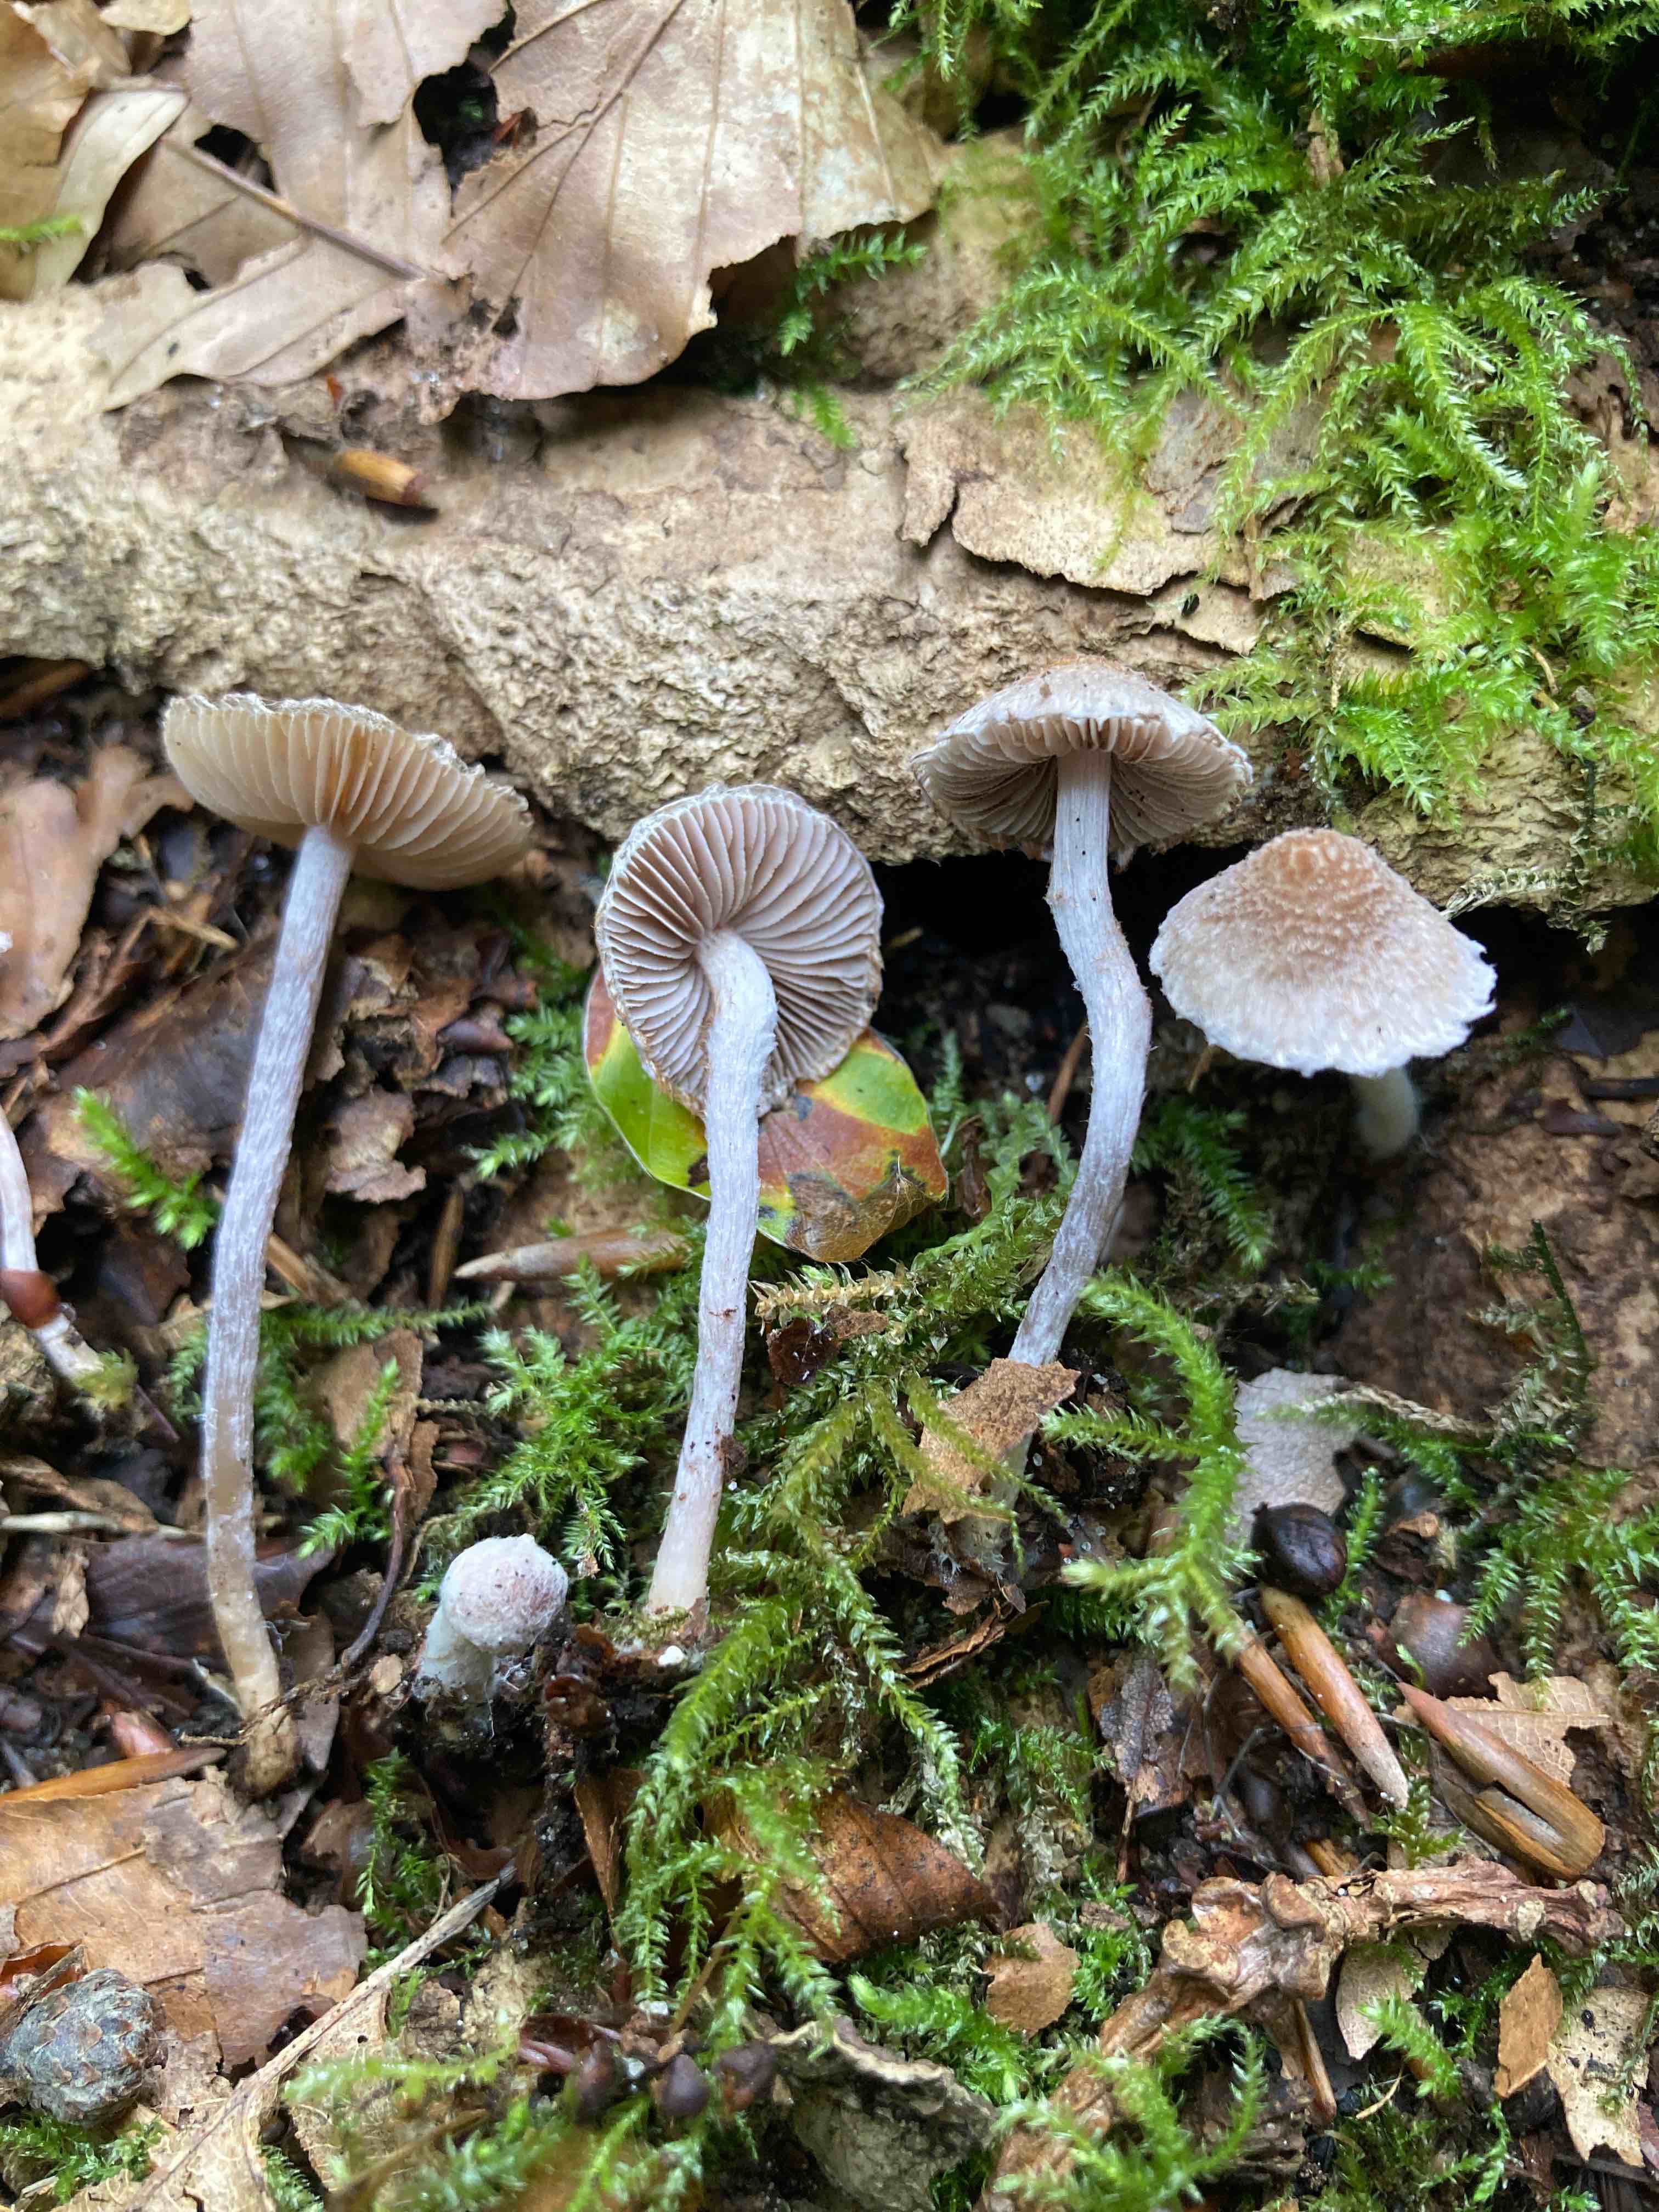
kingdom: Fungi
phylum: Basidiomycota
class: Agaricomycetes
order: Agaricales
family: Inocybaceae
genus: Inocybe
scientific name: Inocybe griseolilacina
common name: lillagrå trævlhat
